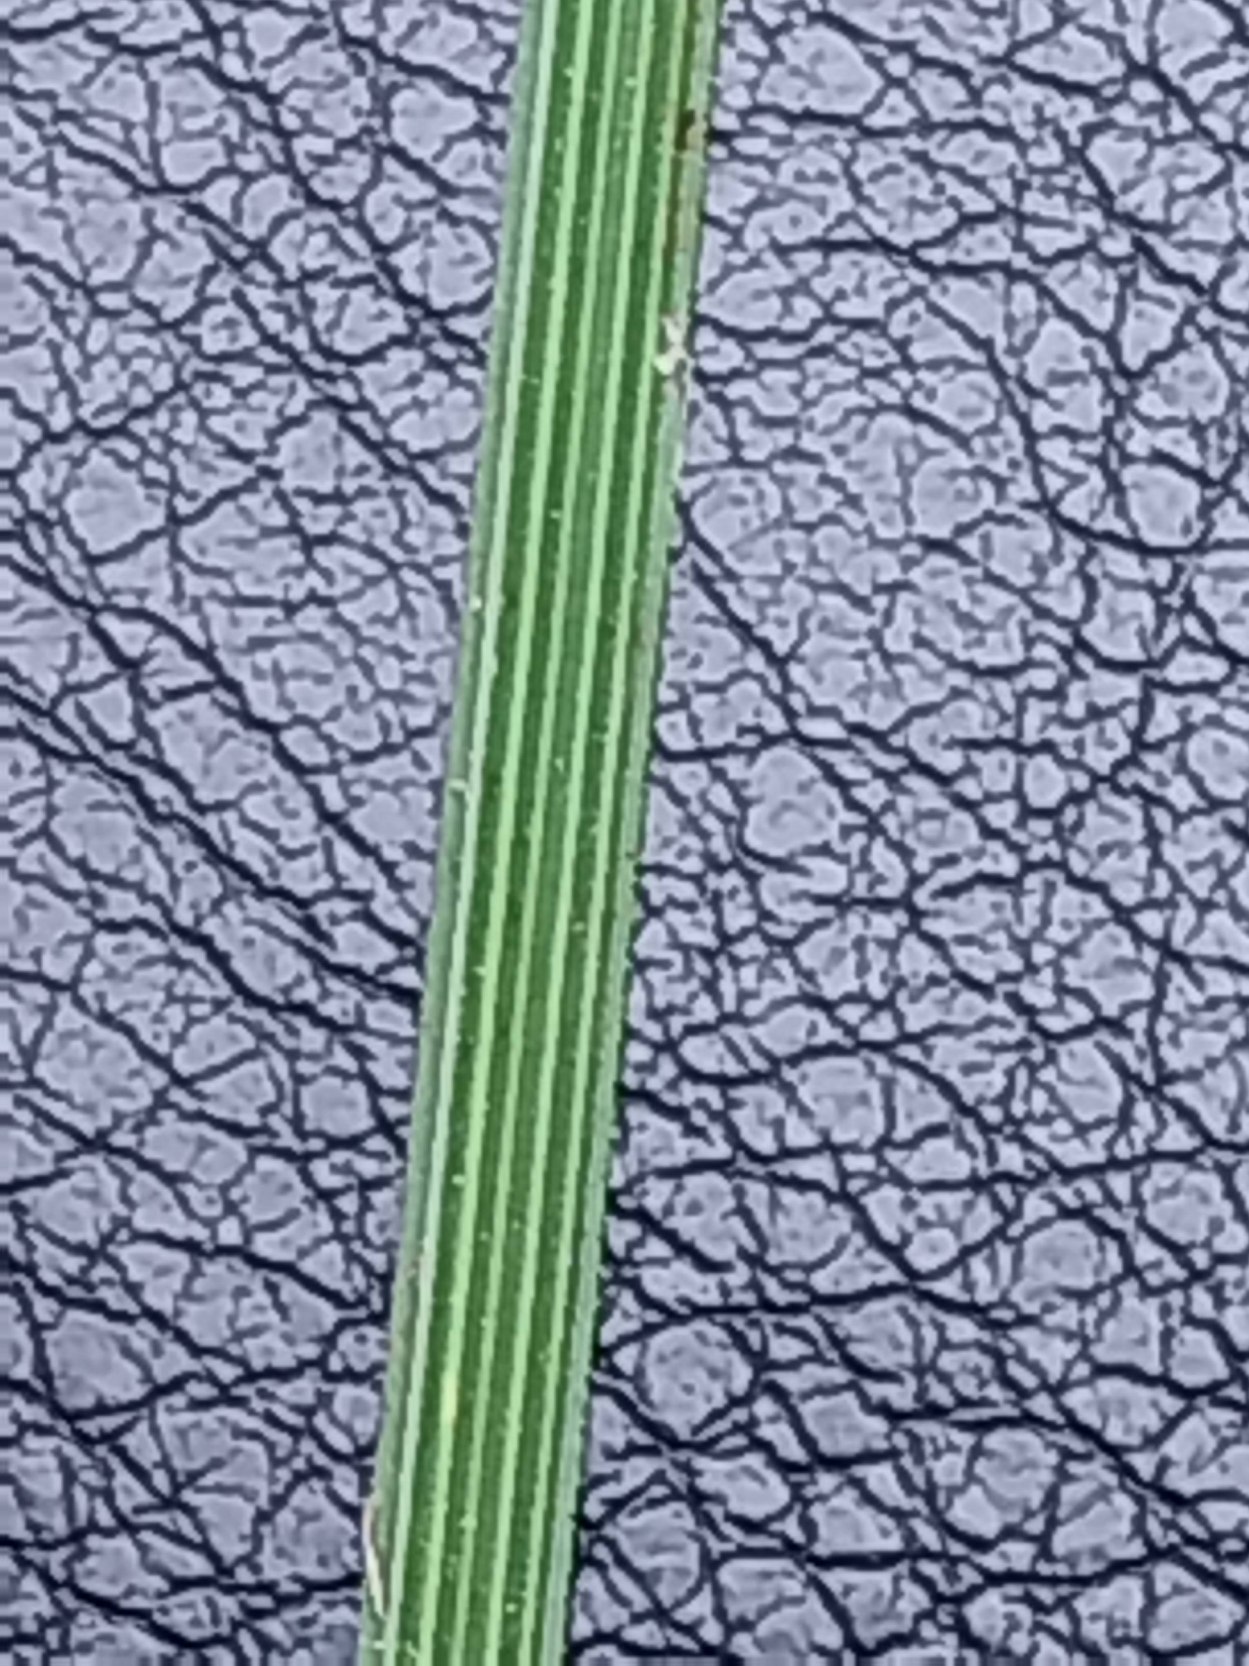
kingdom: Plantae
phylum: Tracheophyta
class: Liliopsida
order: Poales
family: Poaceae
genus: Deschampsia
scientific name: Deschampsia cespitosa
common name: Mose-bunke
